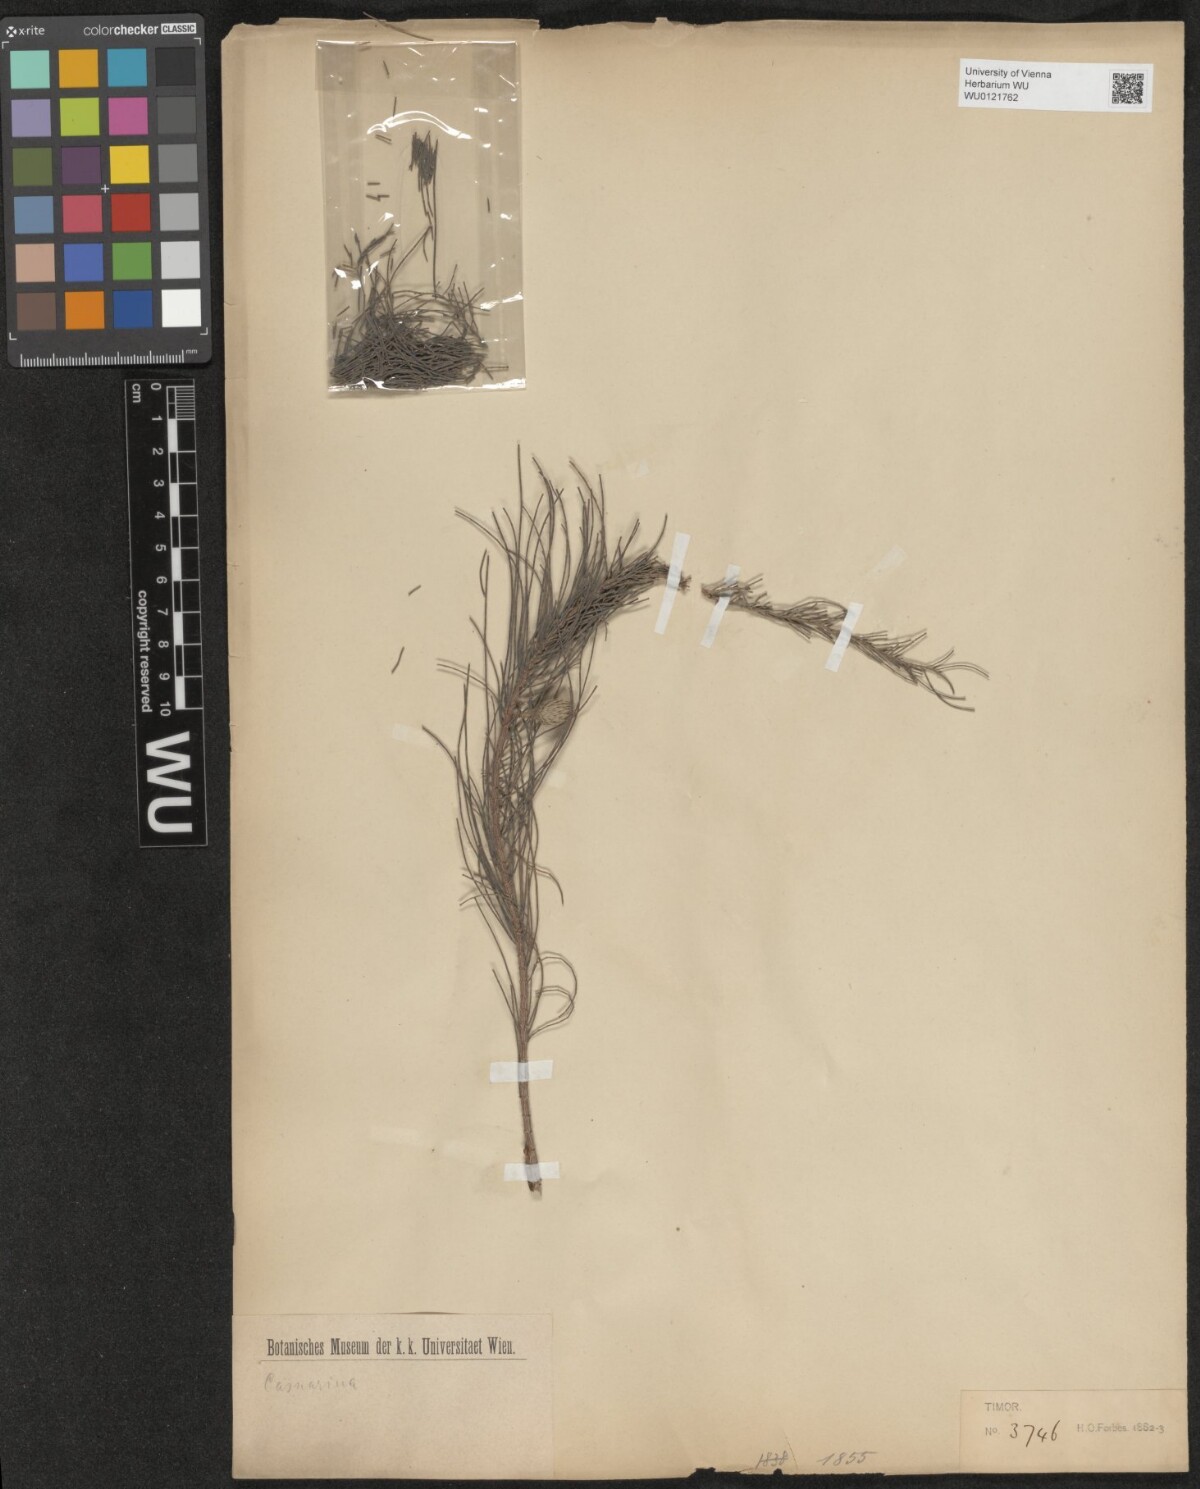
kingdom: Plantae
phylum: Tracheophyta
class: Magnoliopsida
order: Fagales
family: Casuarinaceae
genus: Casuarina
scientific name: Casuarina
